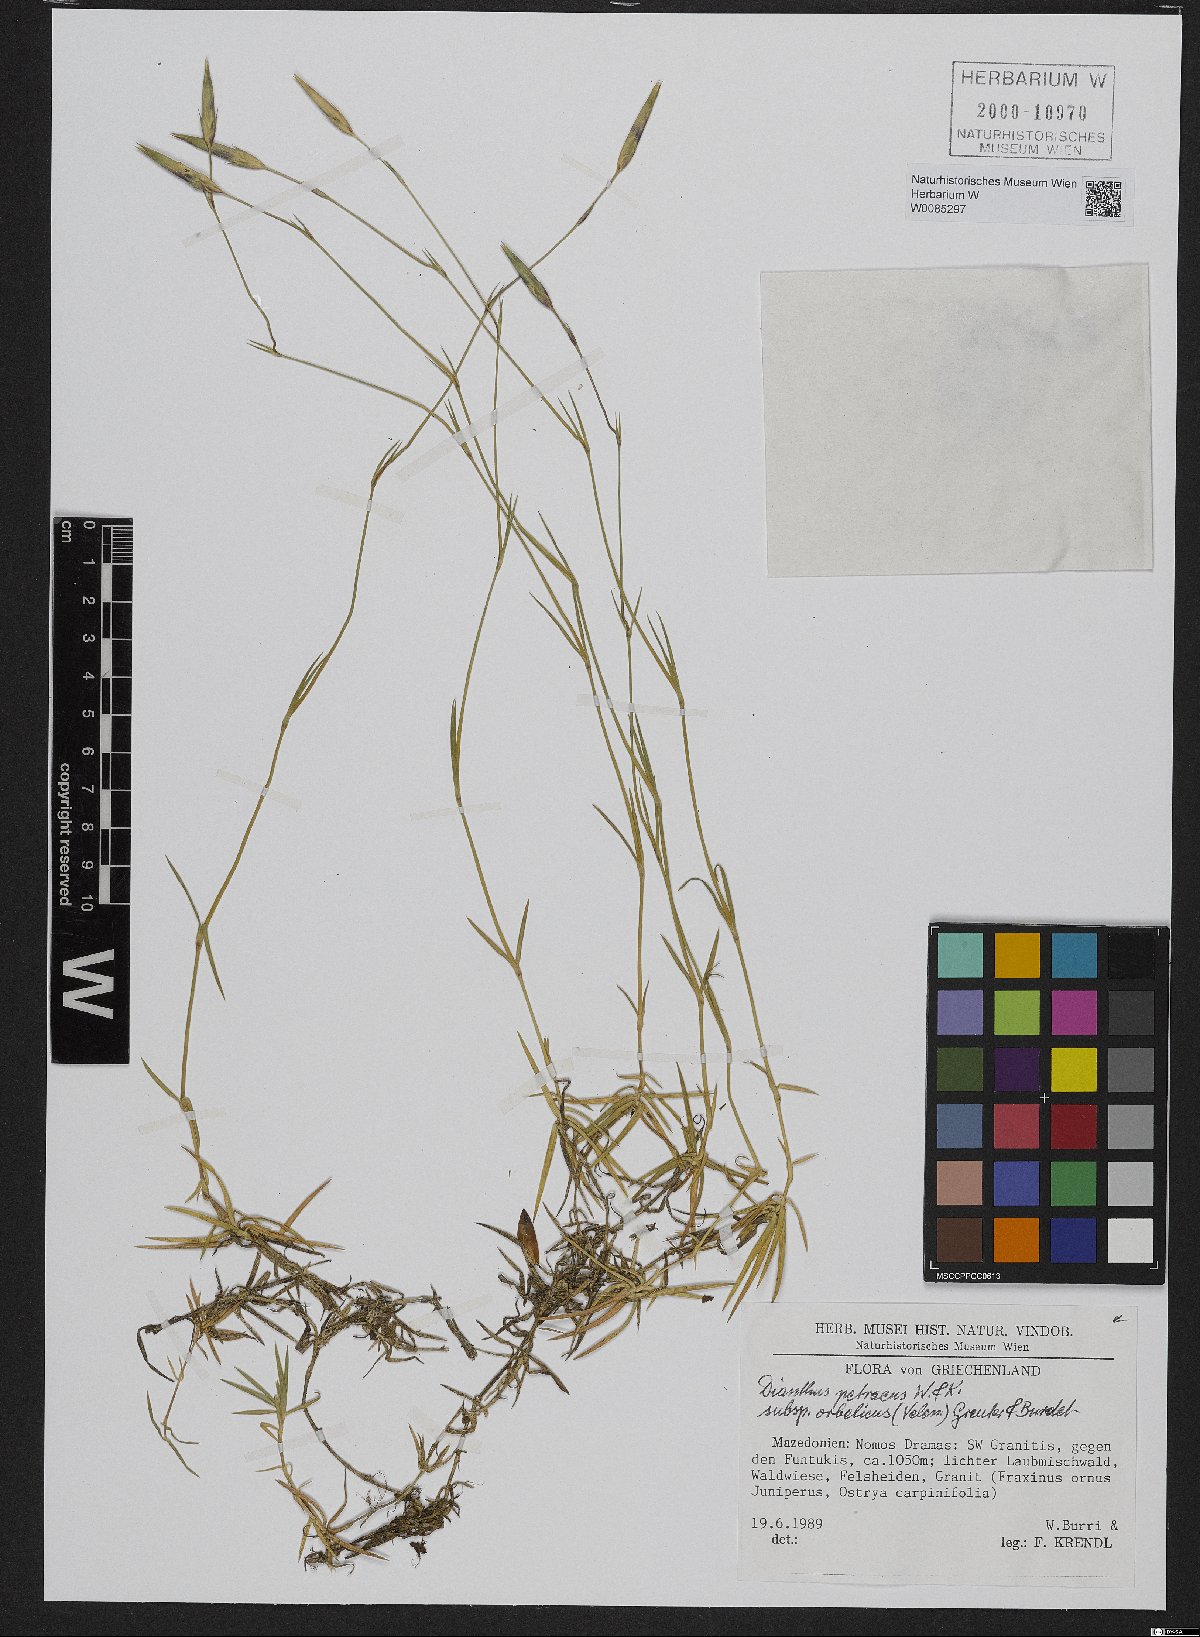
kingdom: Plantae
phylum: Tracheophyta
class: Magnoliopsida
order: Caryophyllales
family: Caryophyllaceae
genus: Dianthus
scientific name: Dianthus petraeus
